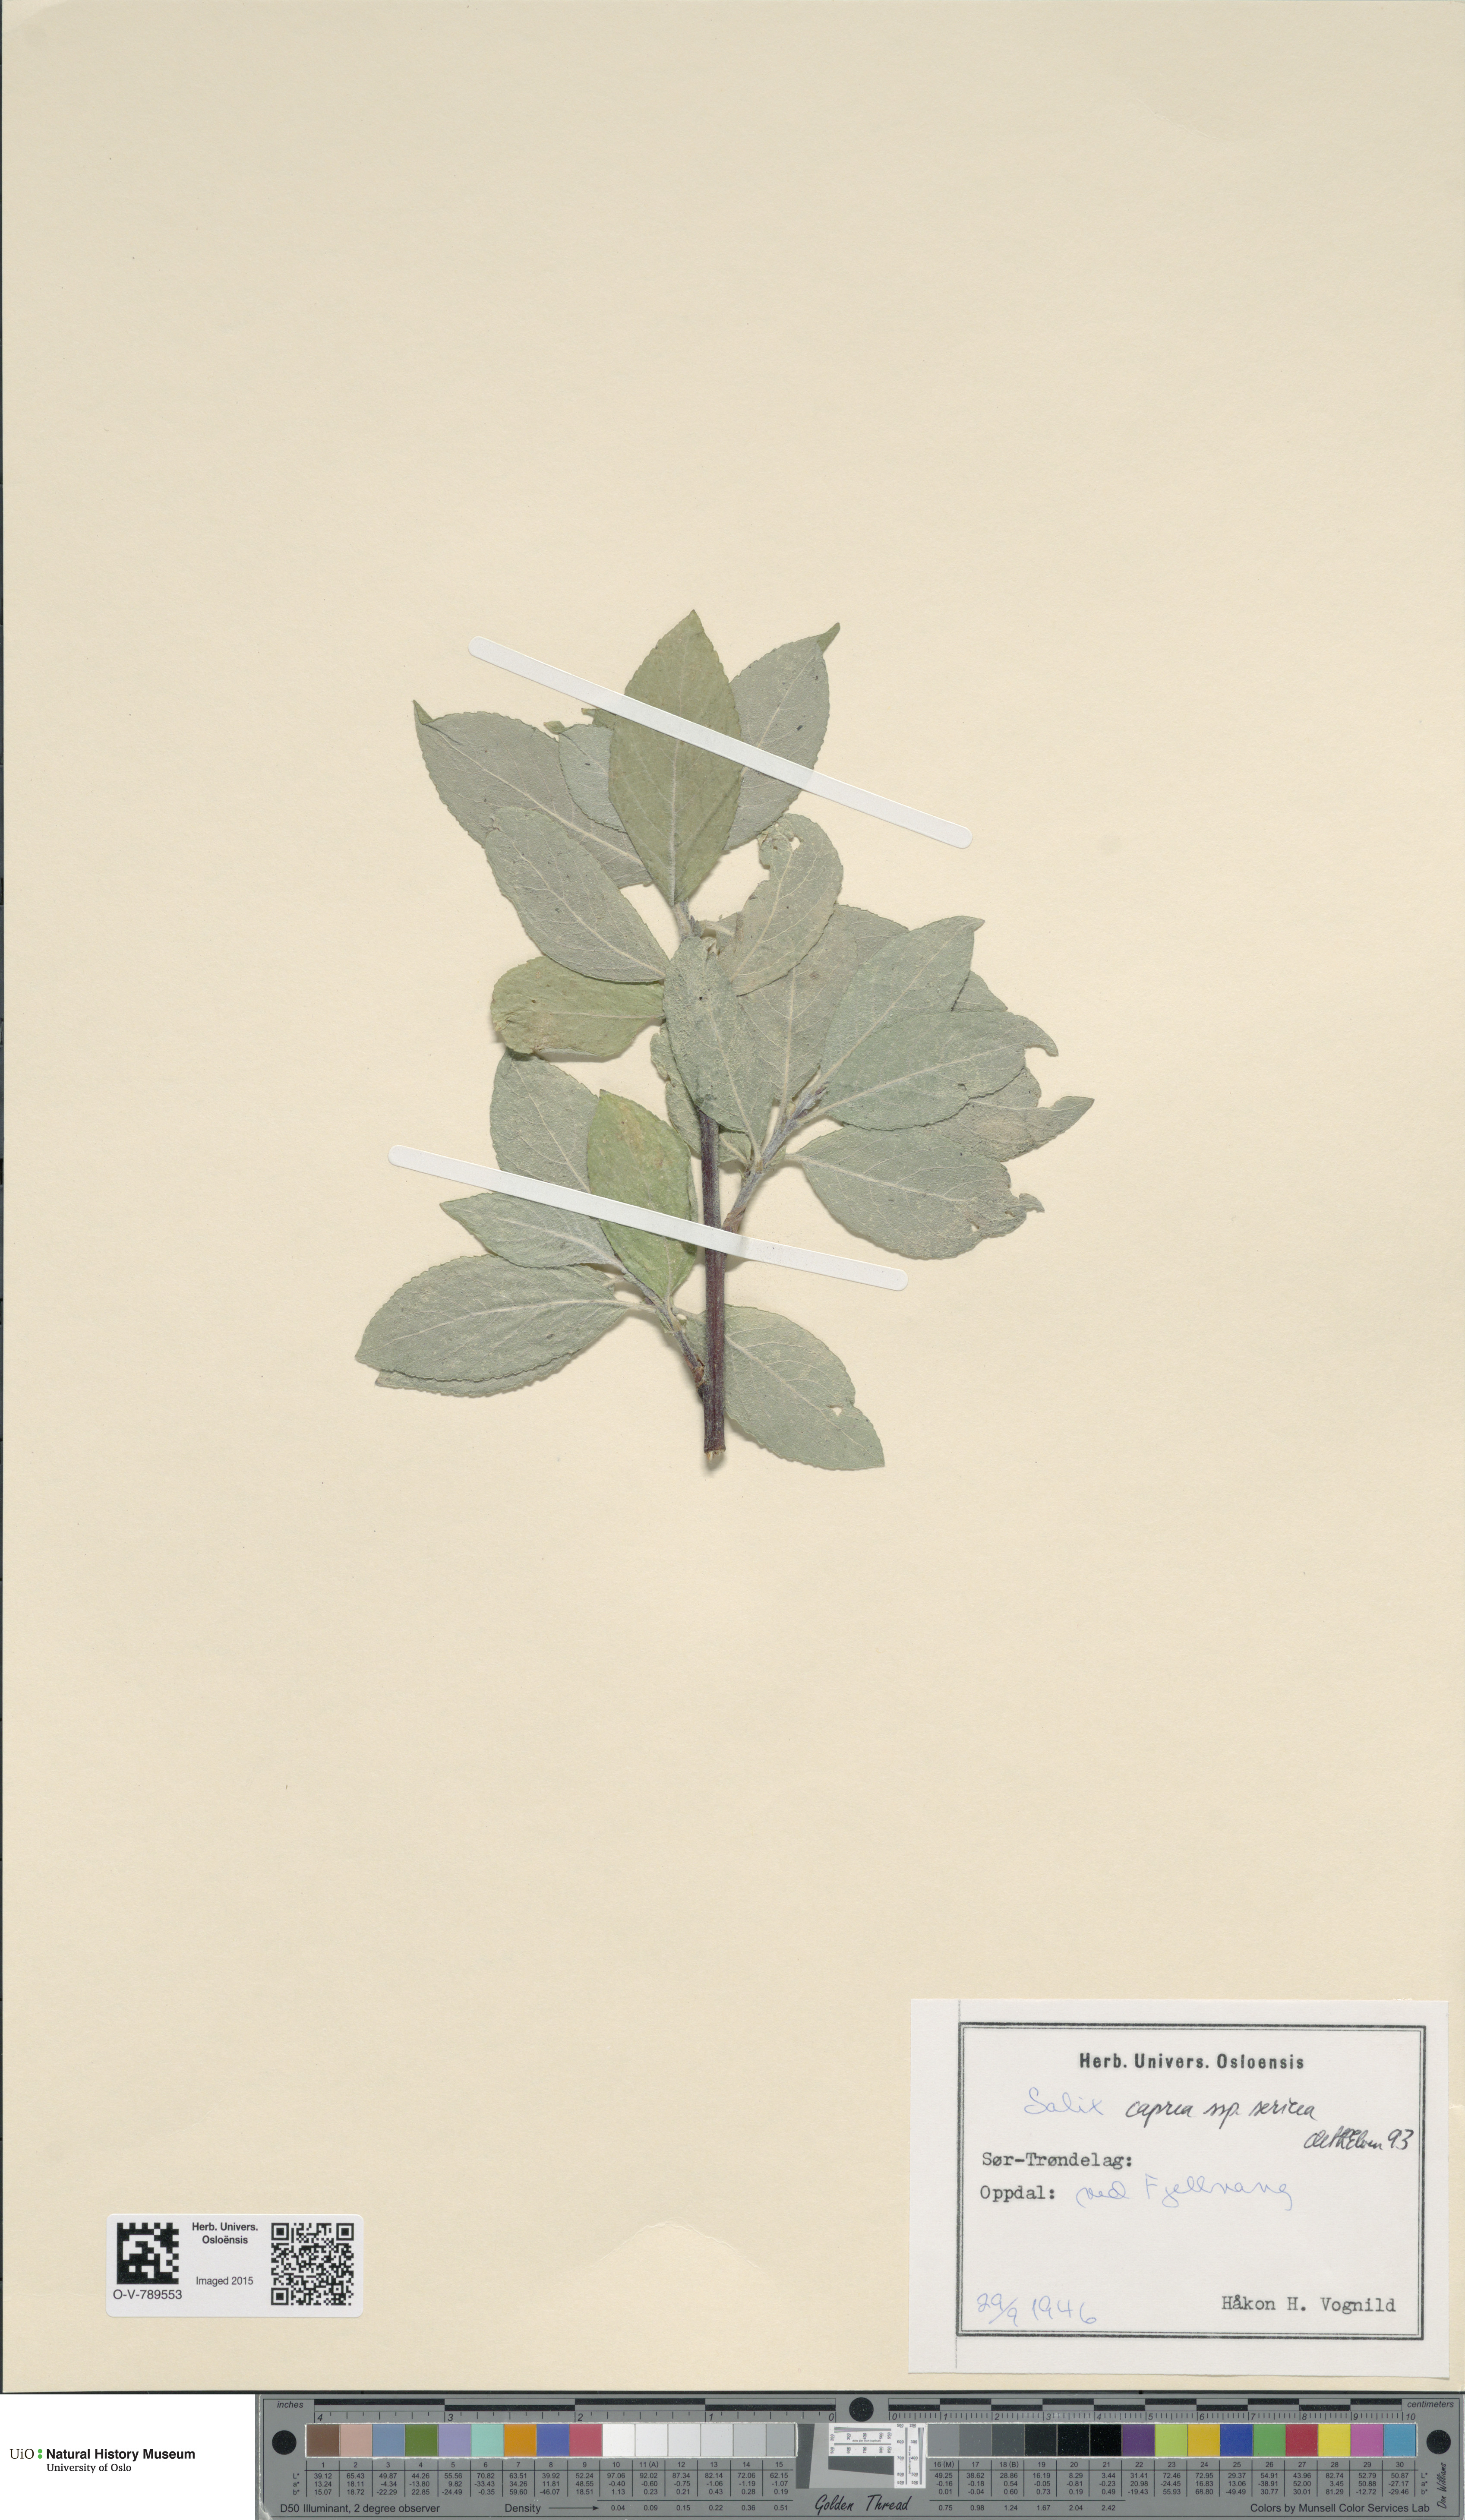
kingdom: Plantae
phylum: Tracheophyta
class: Magnoliopsida
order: Malpighiales
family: Salicaceae
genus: Salix
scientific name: Salix caprea
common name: Goat willow
